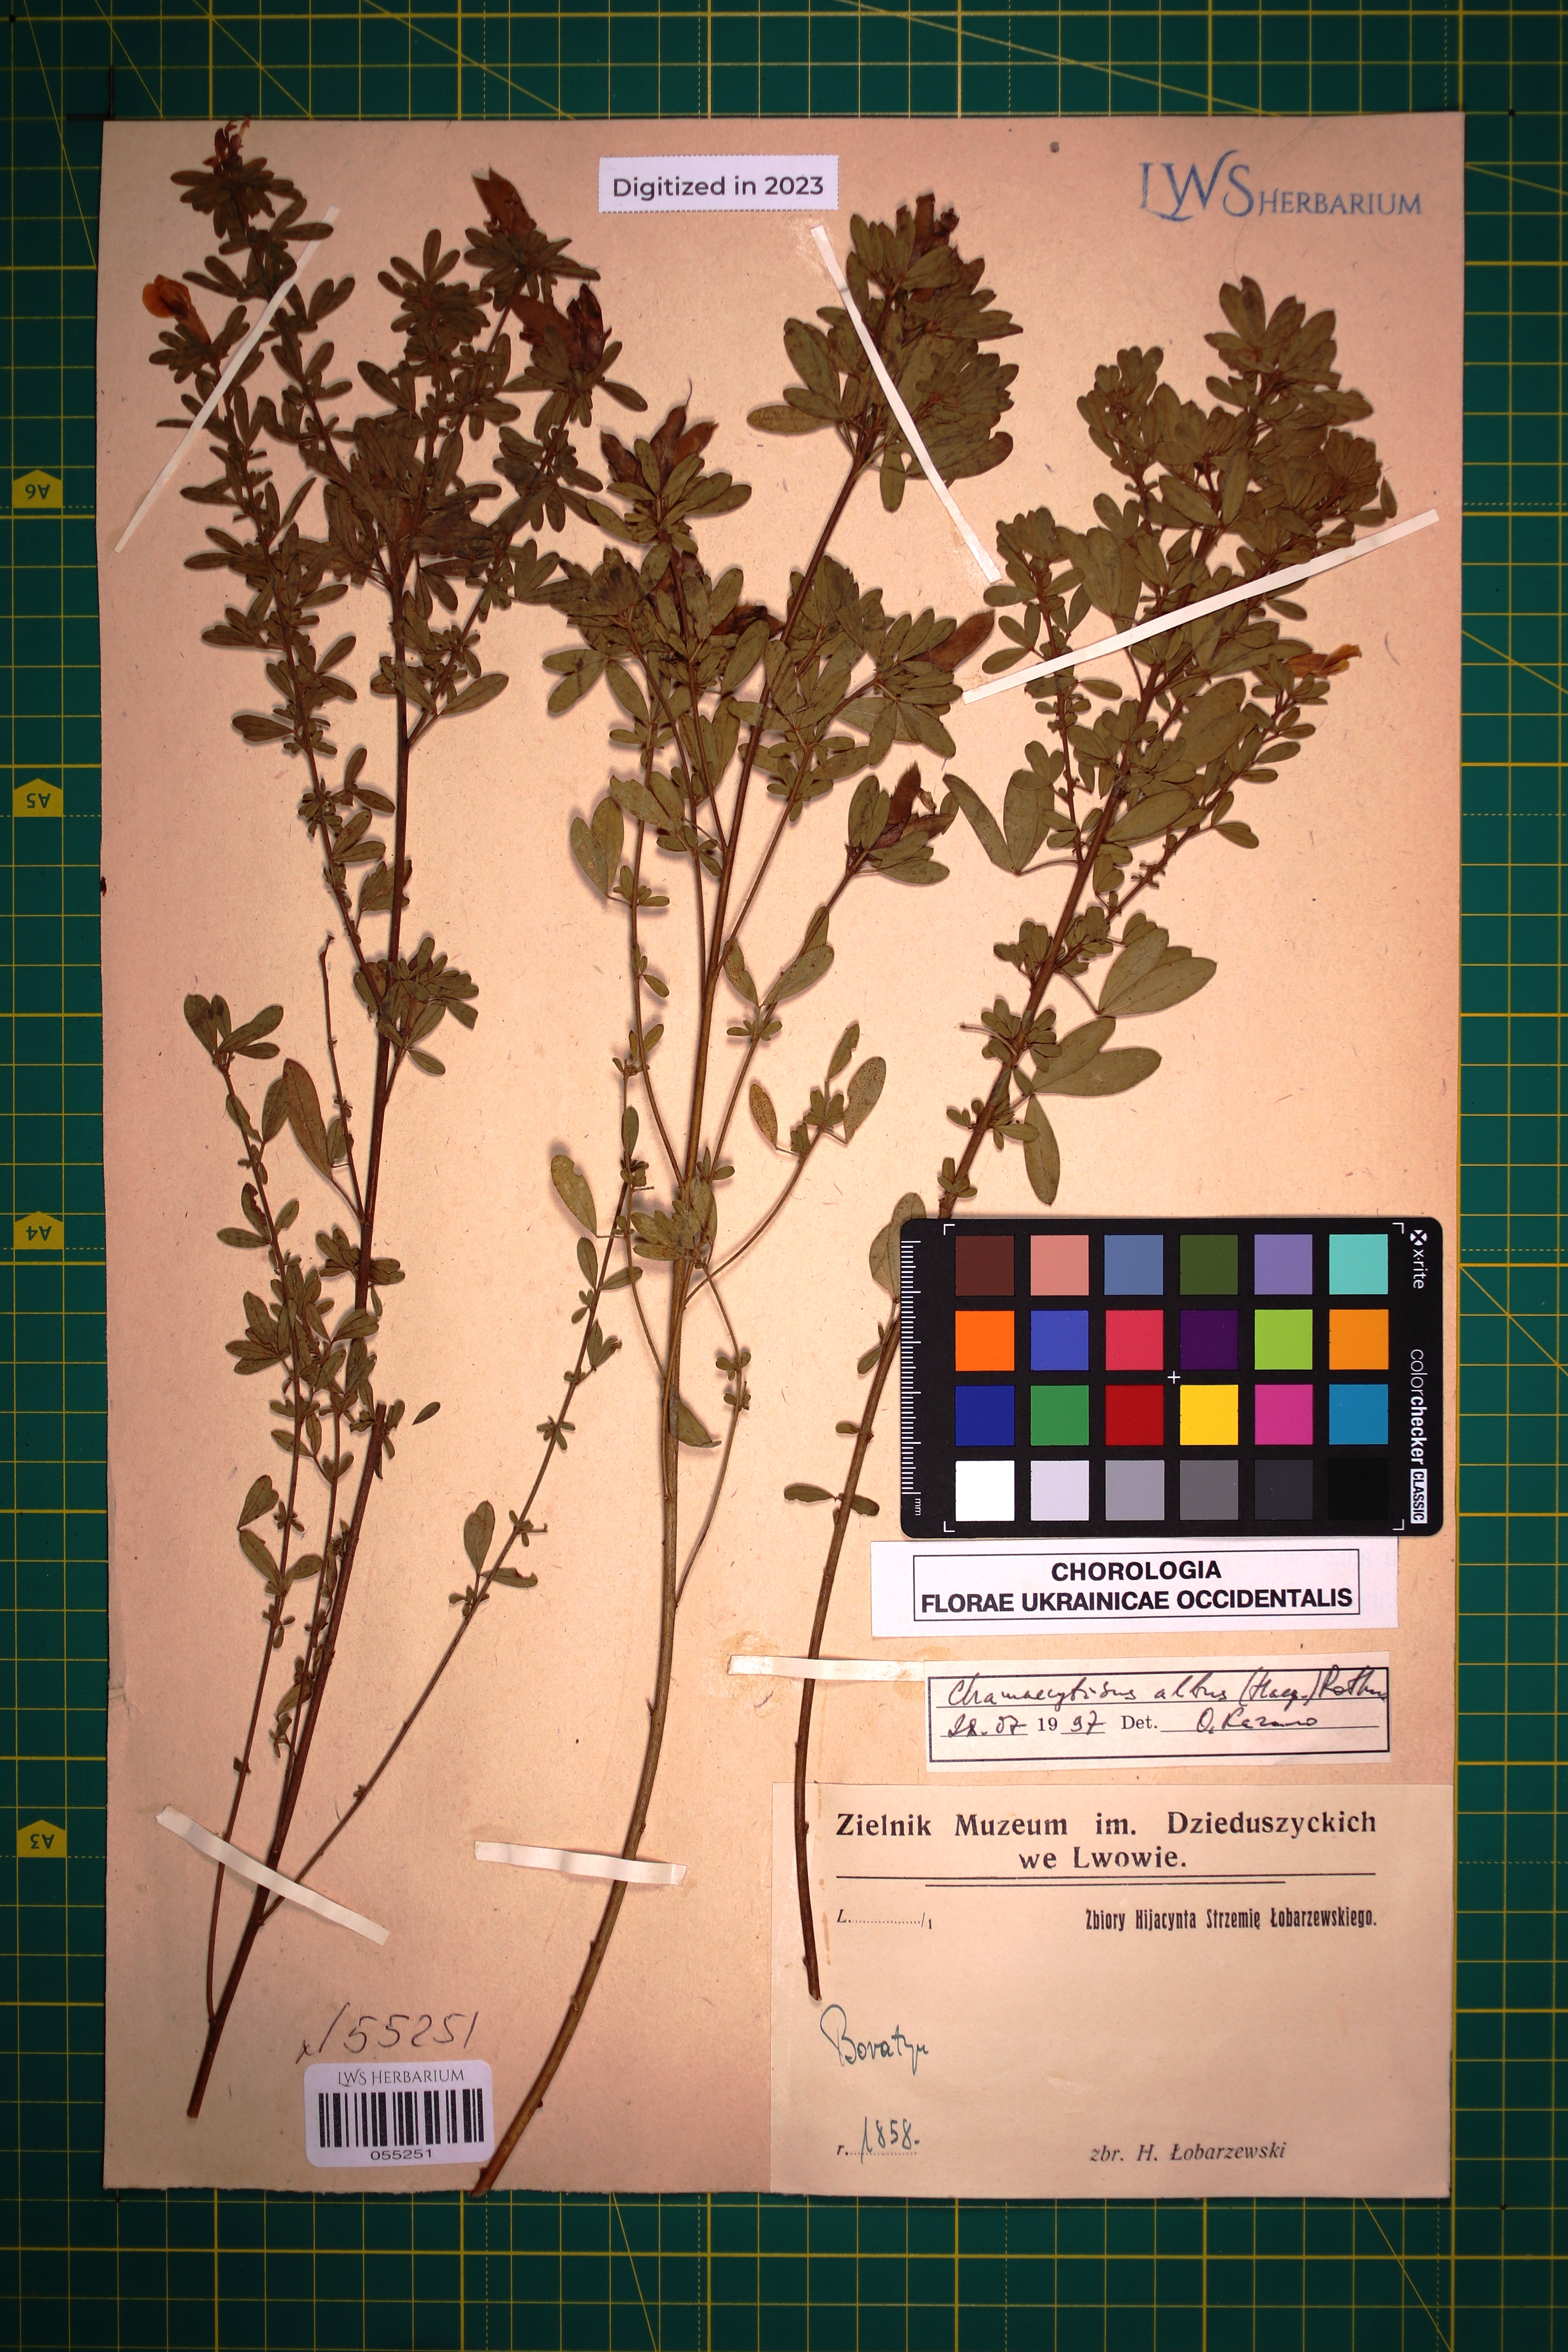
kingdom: Plantae
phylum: Tracheophyta
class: Magnoliopsida
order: Fabales
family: Fabaceae
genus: Chamaecytisus
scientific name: Chamaecytisus albus
